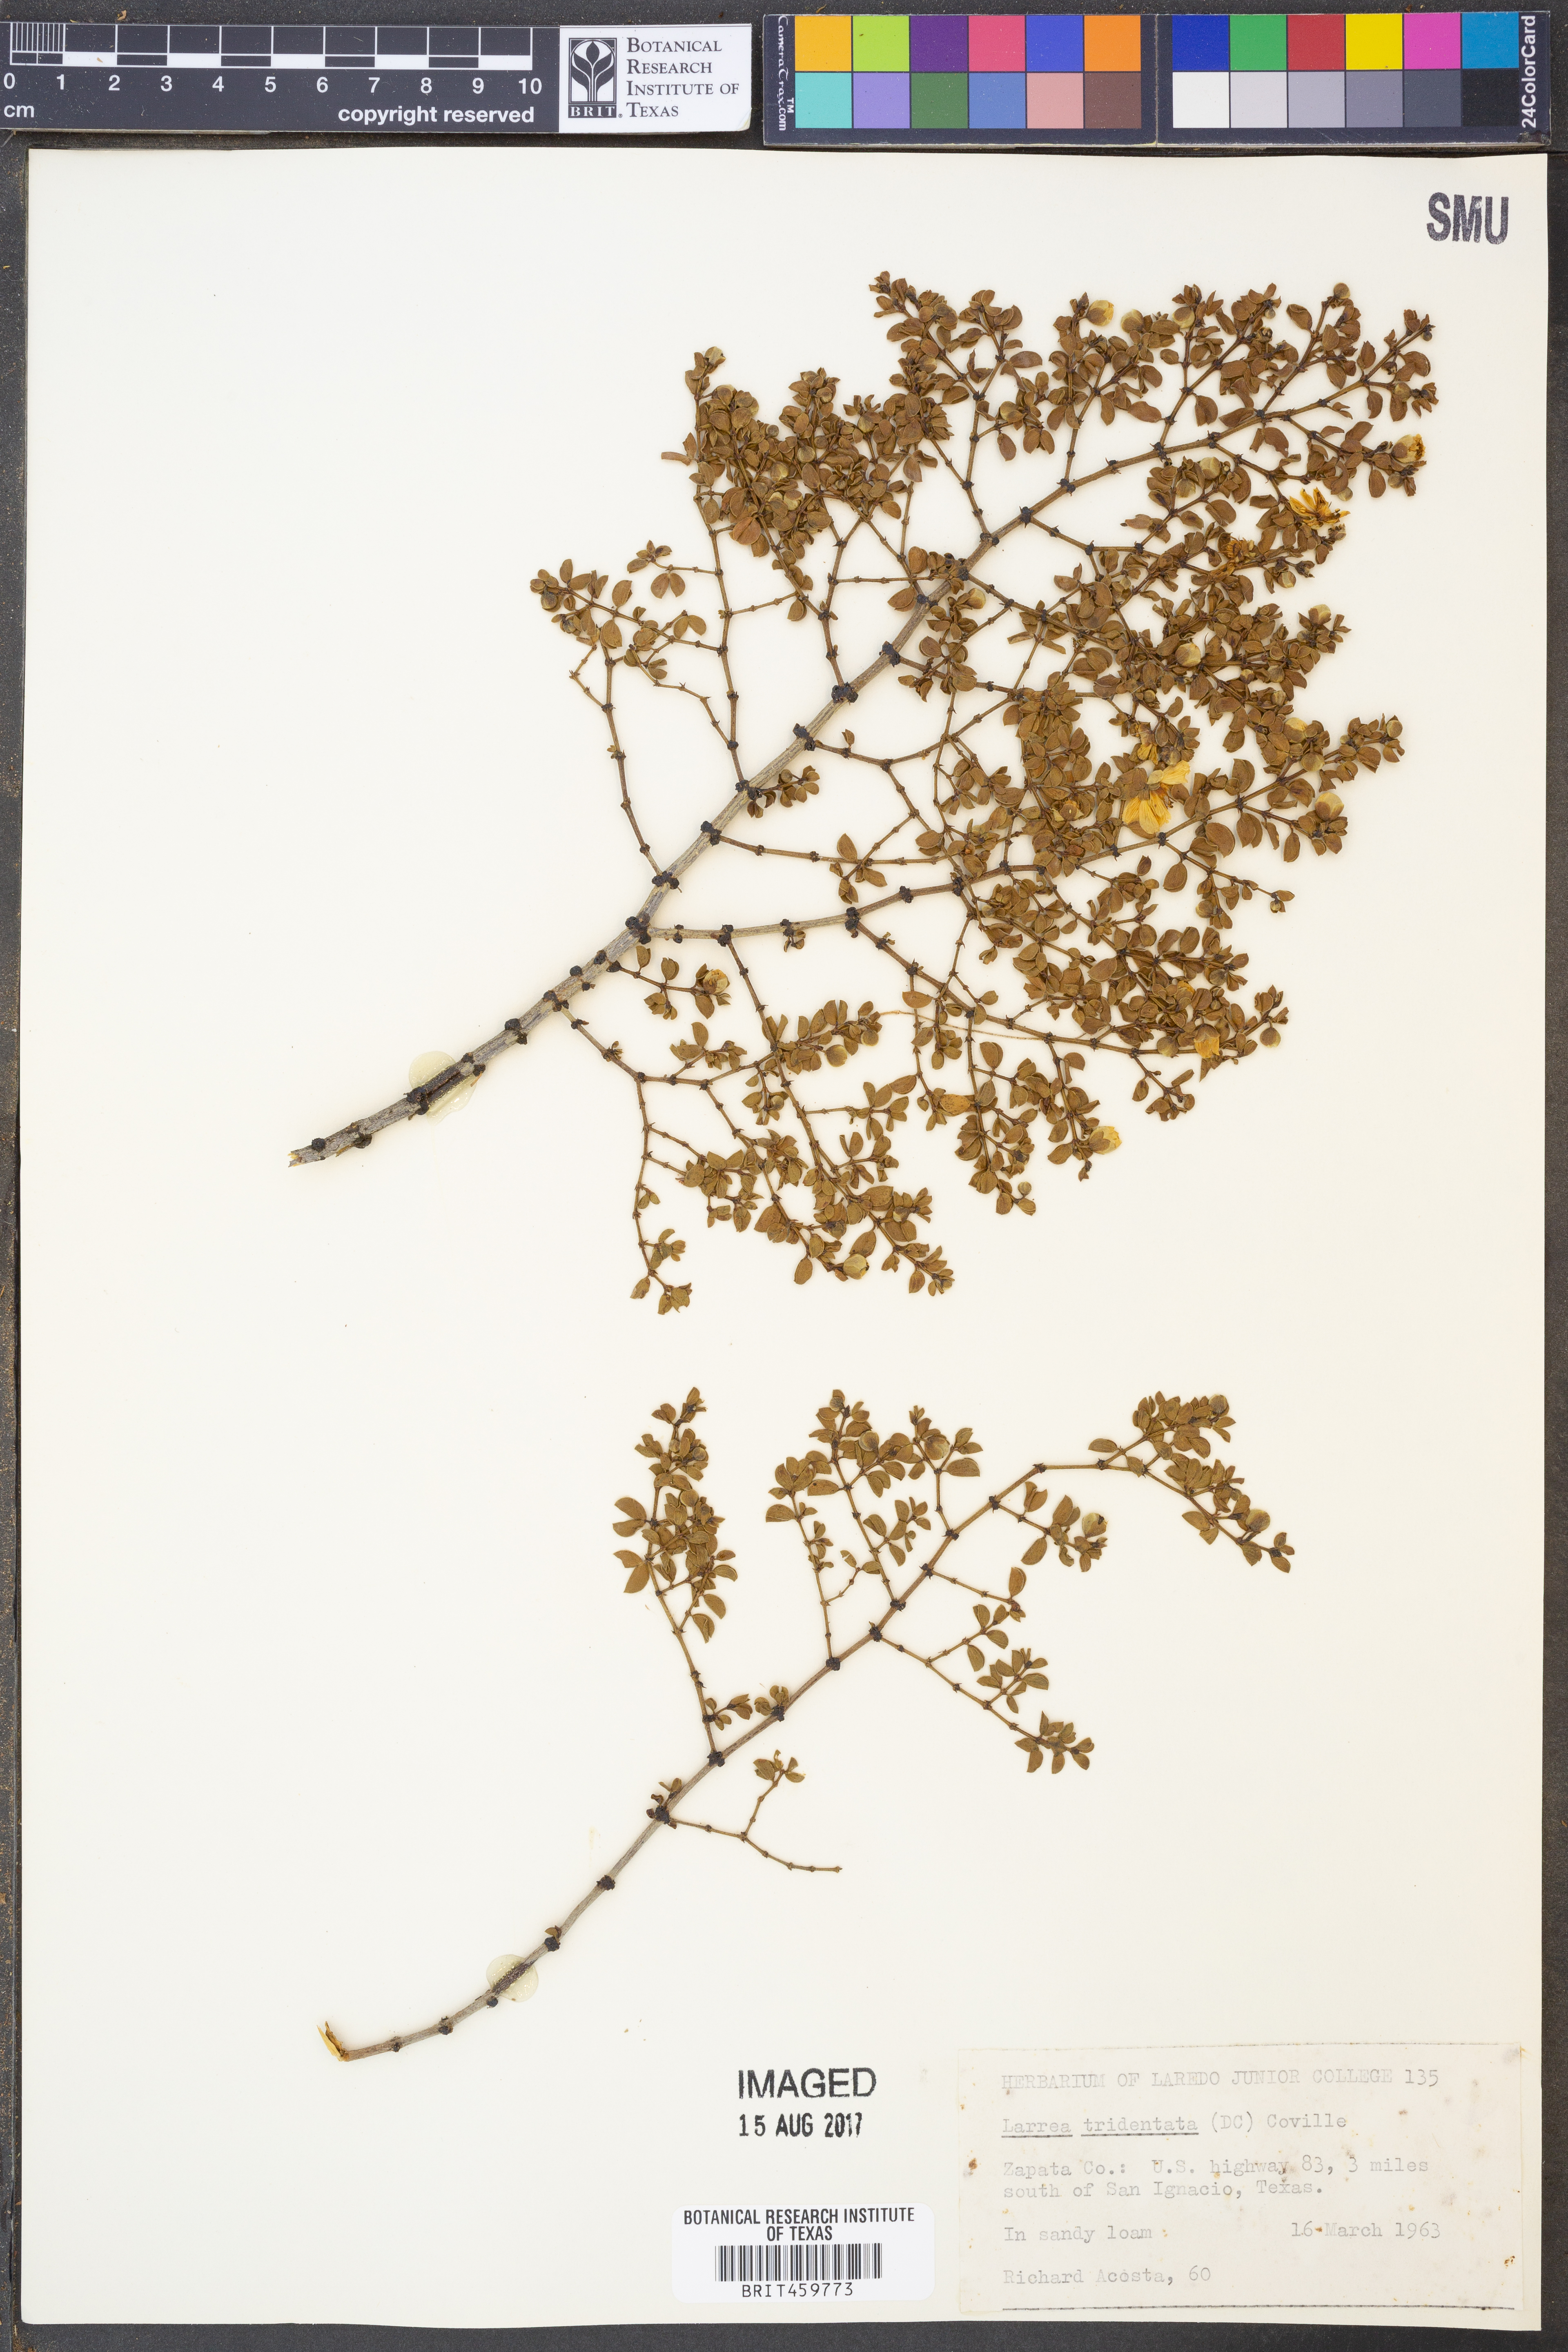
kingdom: Plantae
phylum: Tracheophyta
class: Magnoliopsida
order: Zygophyllales
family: Zygophyllaceae
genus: Larrea
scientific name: Larrea tridentata
